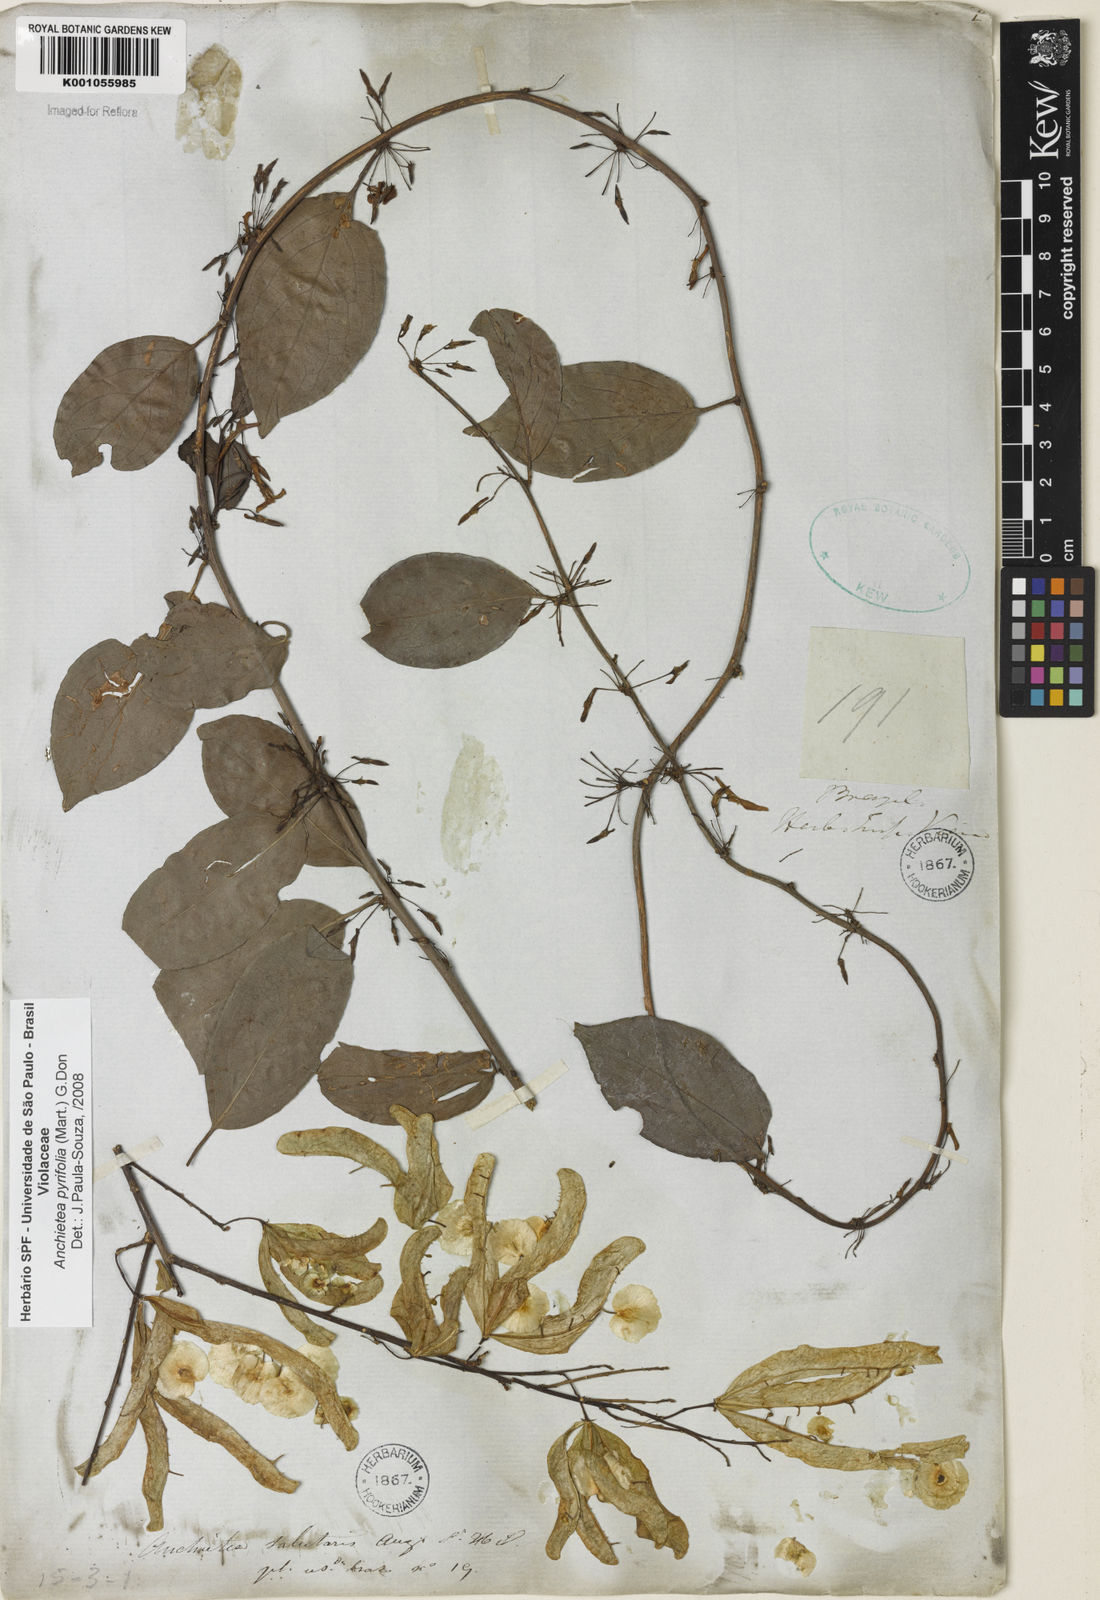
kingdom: Plantae
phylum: Tracheophyta
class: Magnoliopsida
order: Malpighiales
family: Violaceae
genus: Anchietea
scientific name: Anchietea pyrifolia
